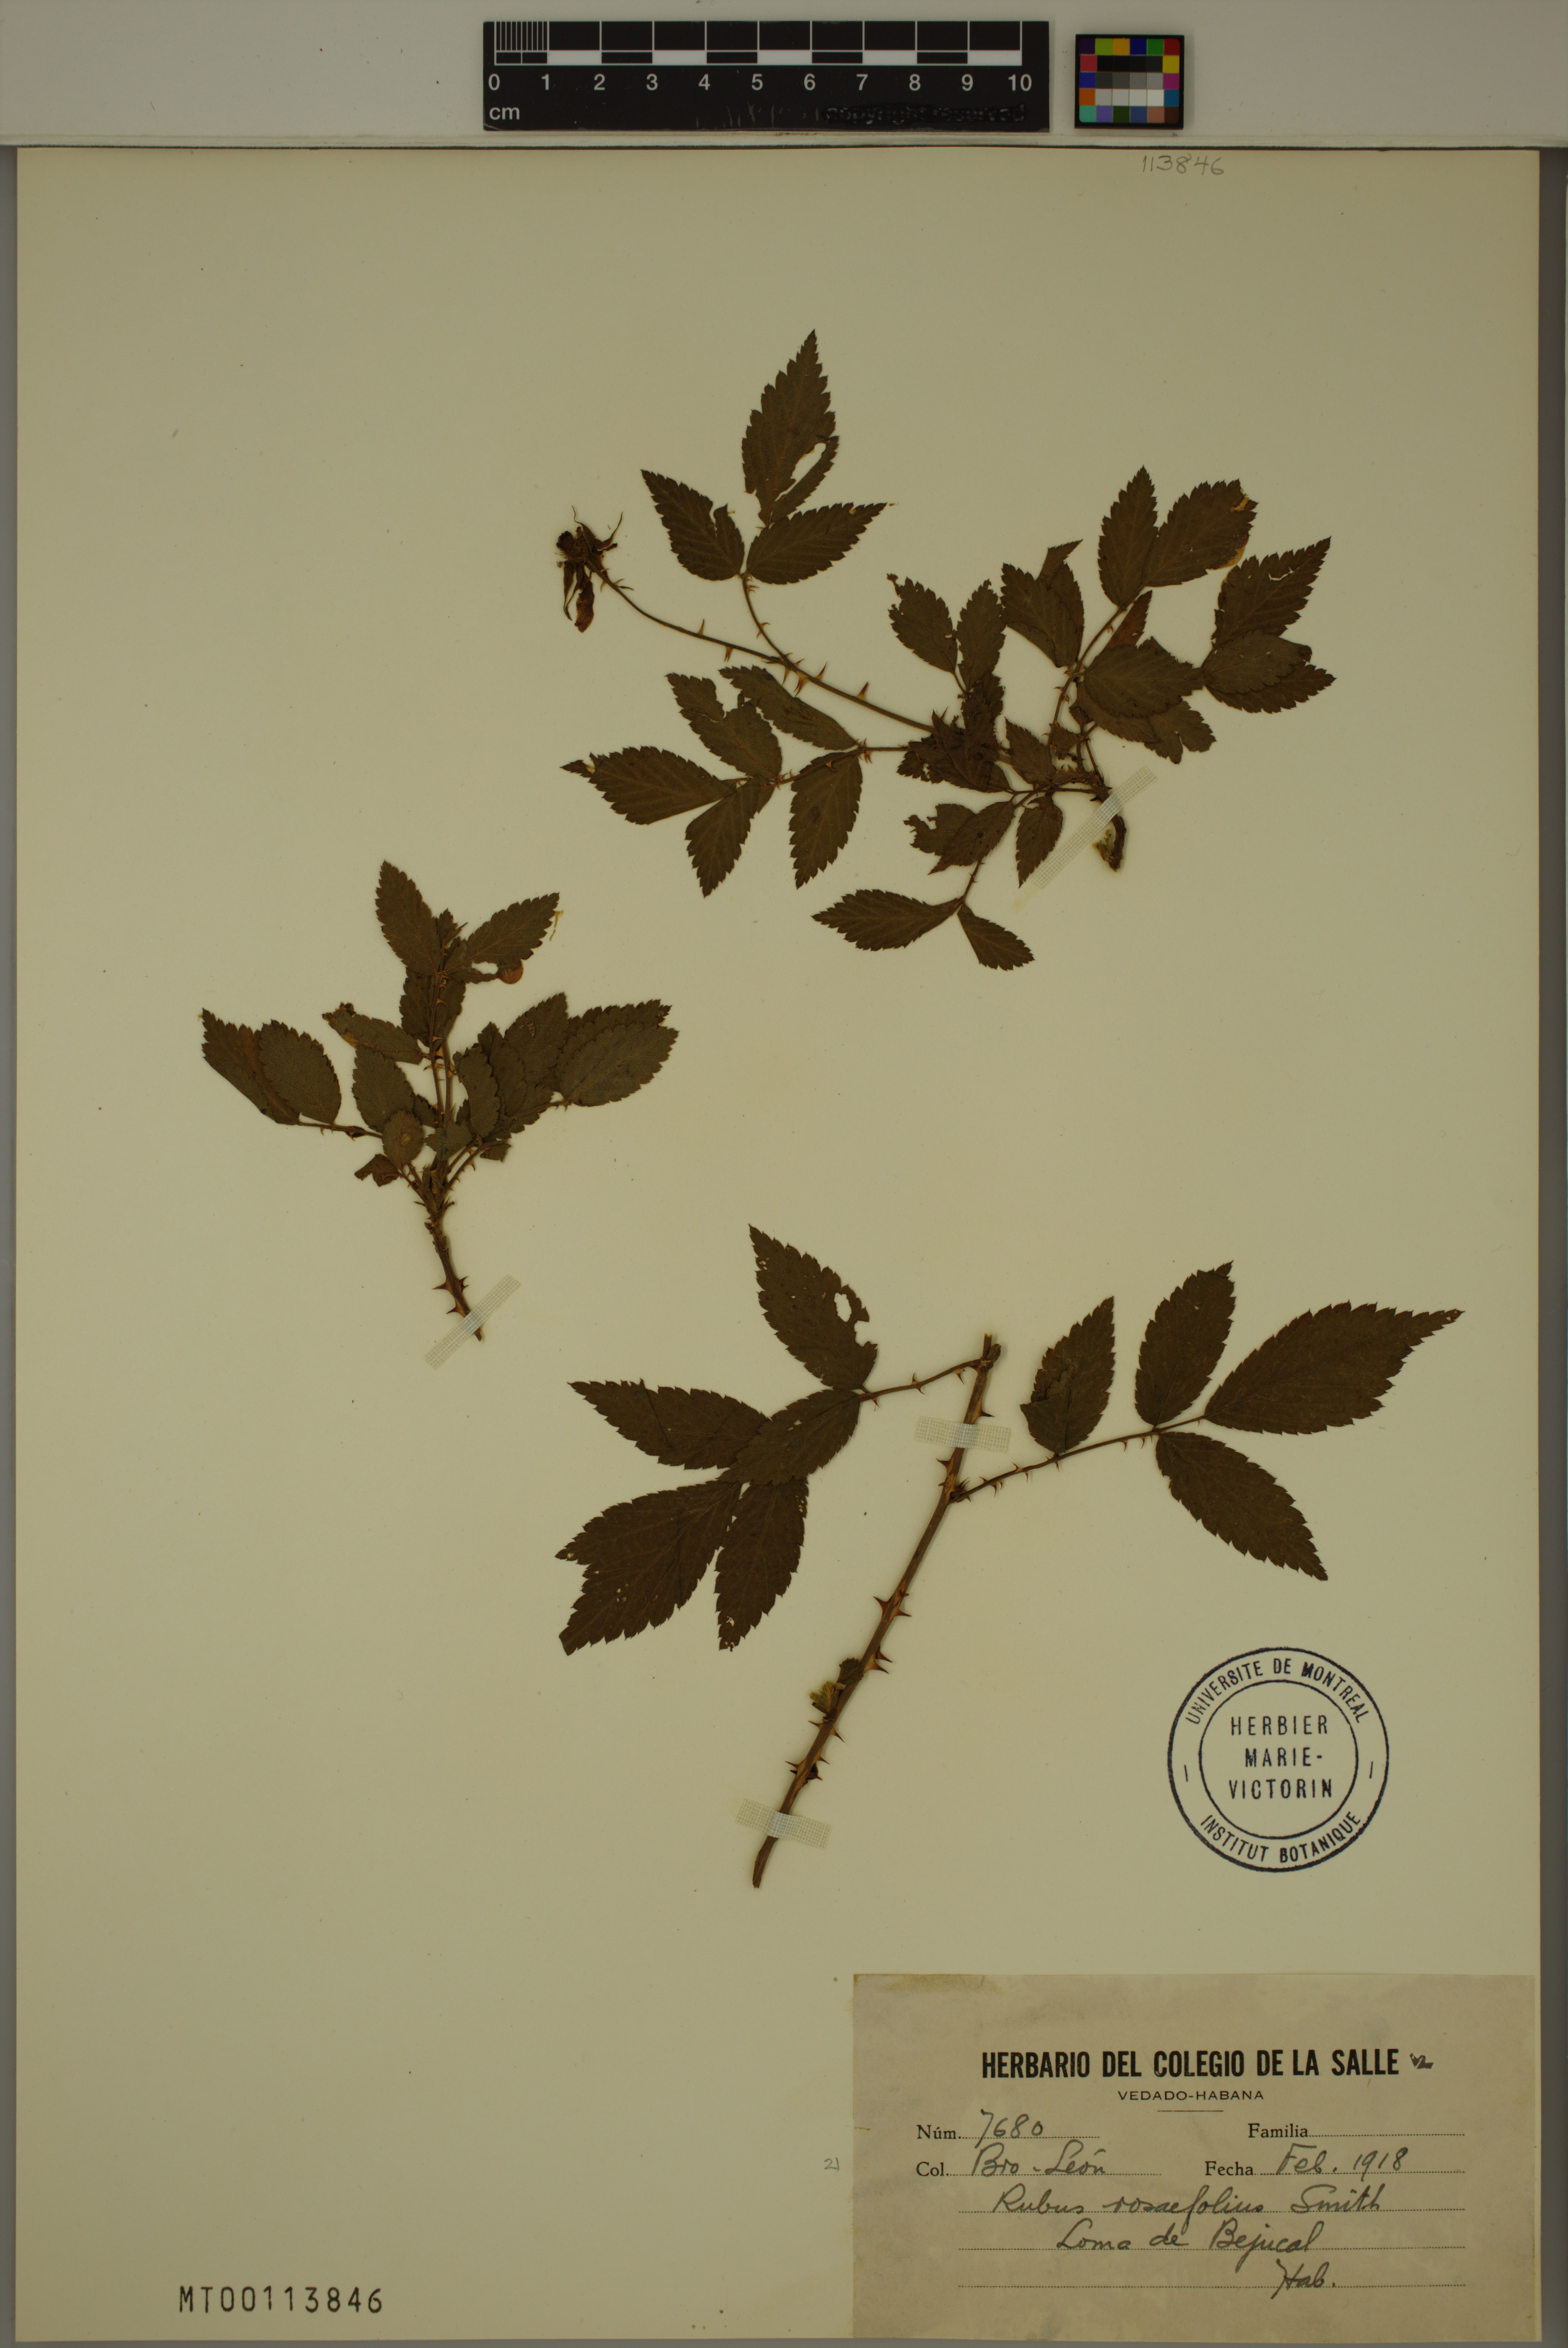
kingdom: Plantae
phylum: Tracheophyta
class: Magnoliopsida
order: Rosales
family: Rosaceae
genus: Rubus
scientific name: Rubus rosifolius
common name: Roseleaf raspberry
